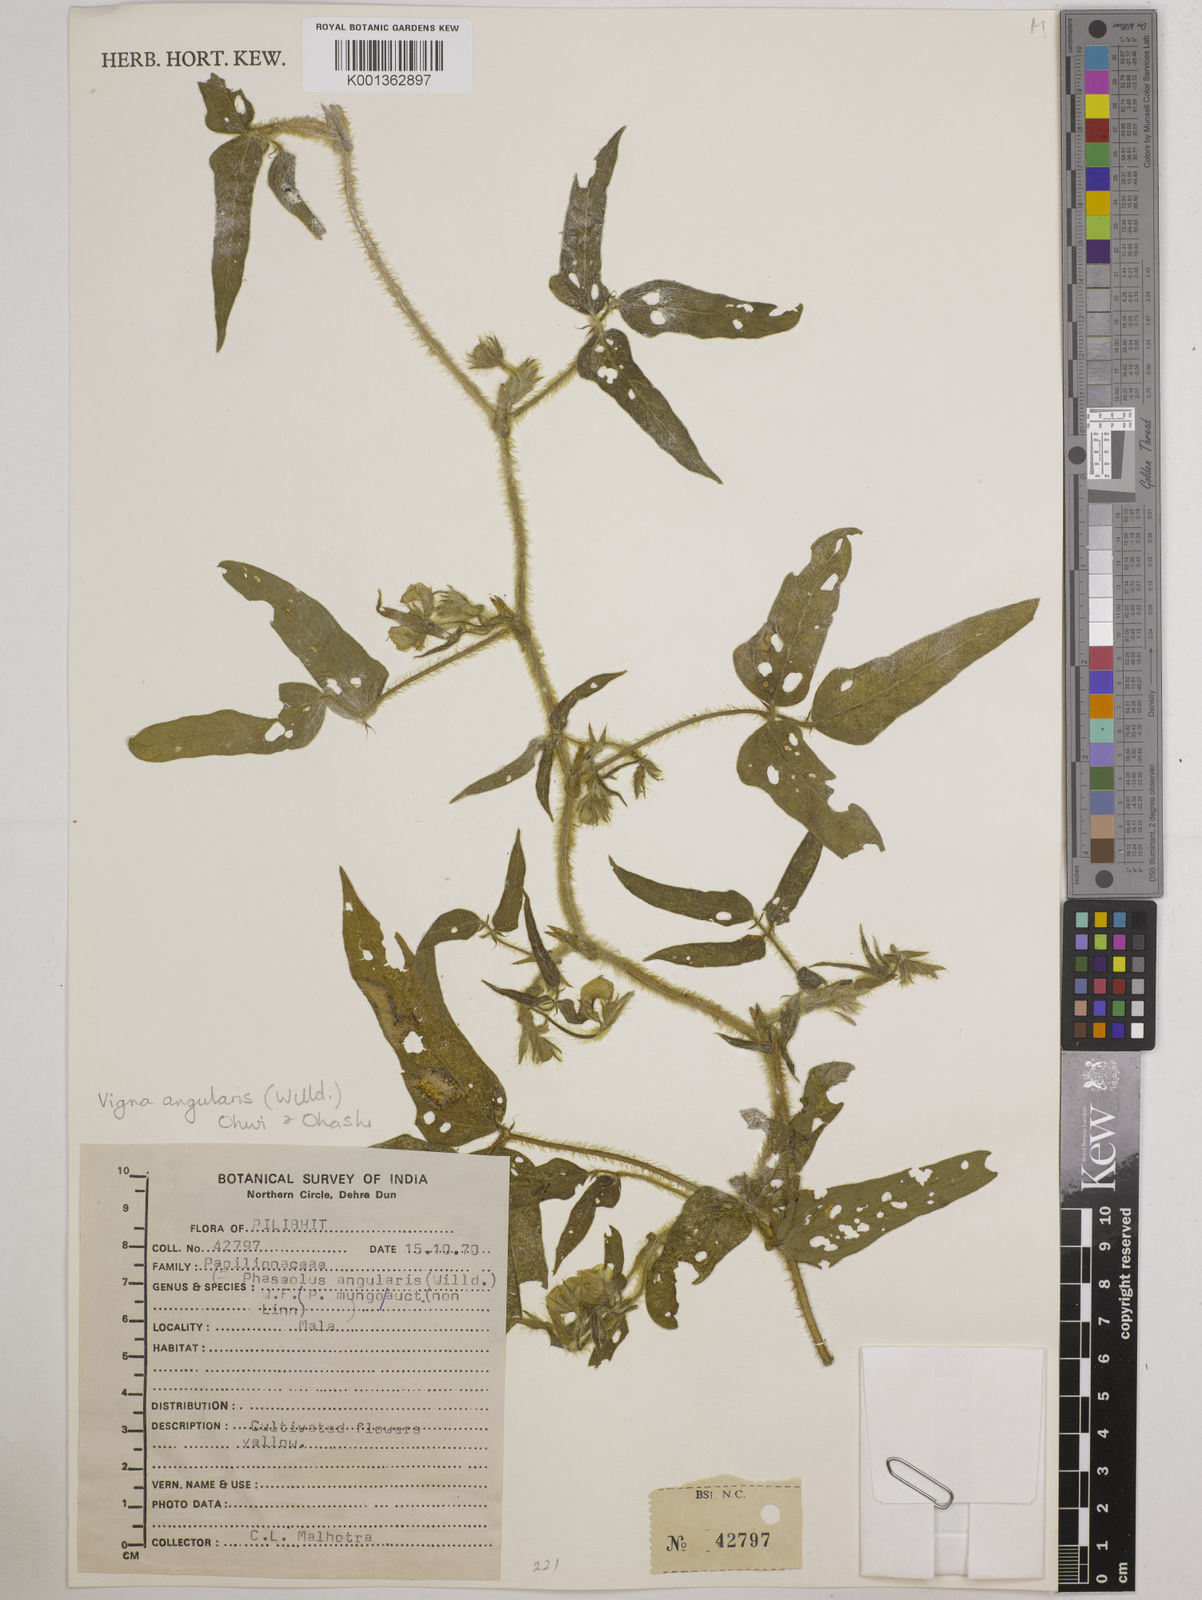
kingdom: Plantae
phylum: Tracheophyta
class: Magnoliopsida
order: Fabales
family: Fabaceae
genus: Vigna
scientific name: Vigna
